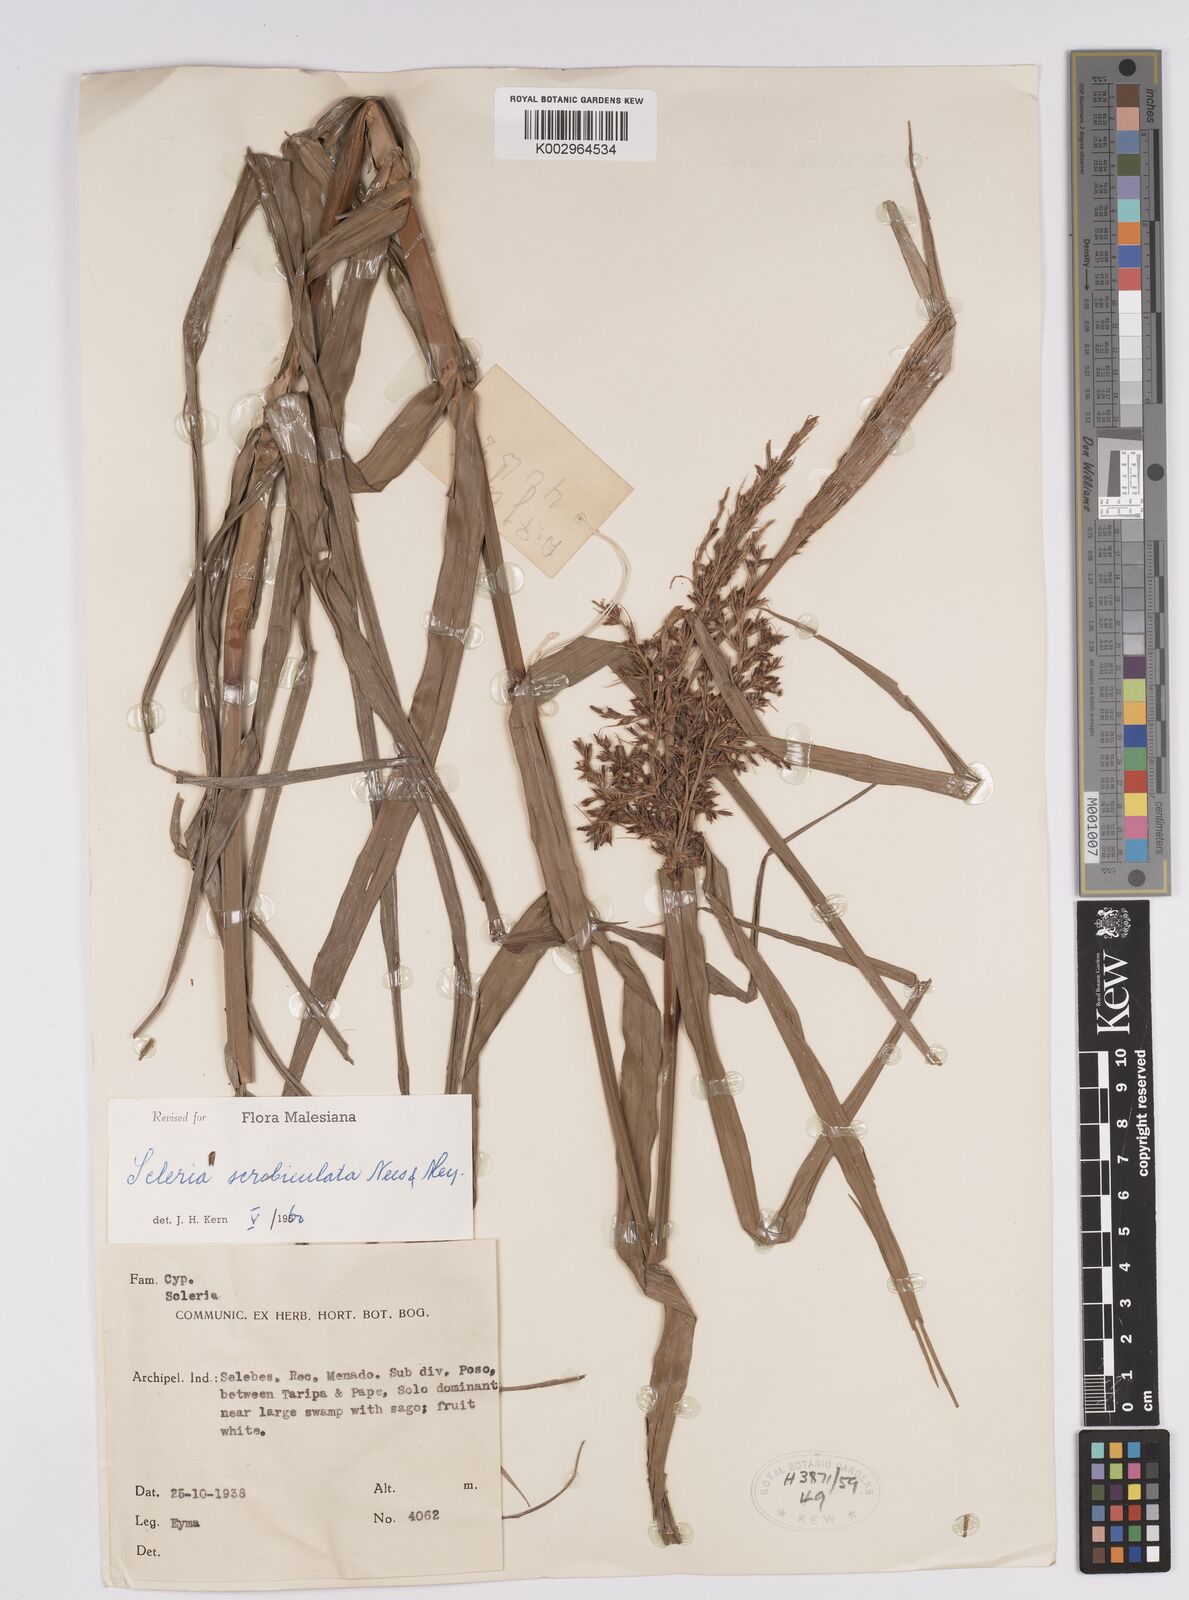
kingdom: Plantae
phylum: Tracheophyta
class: Liliopsida
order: Poales
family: Cyperaceae
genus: Scleria
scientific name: Scleria scrobiculata
